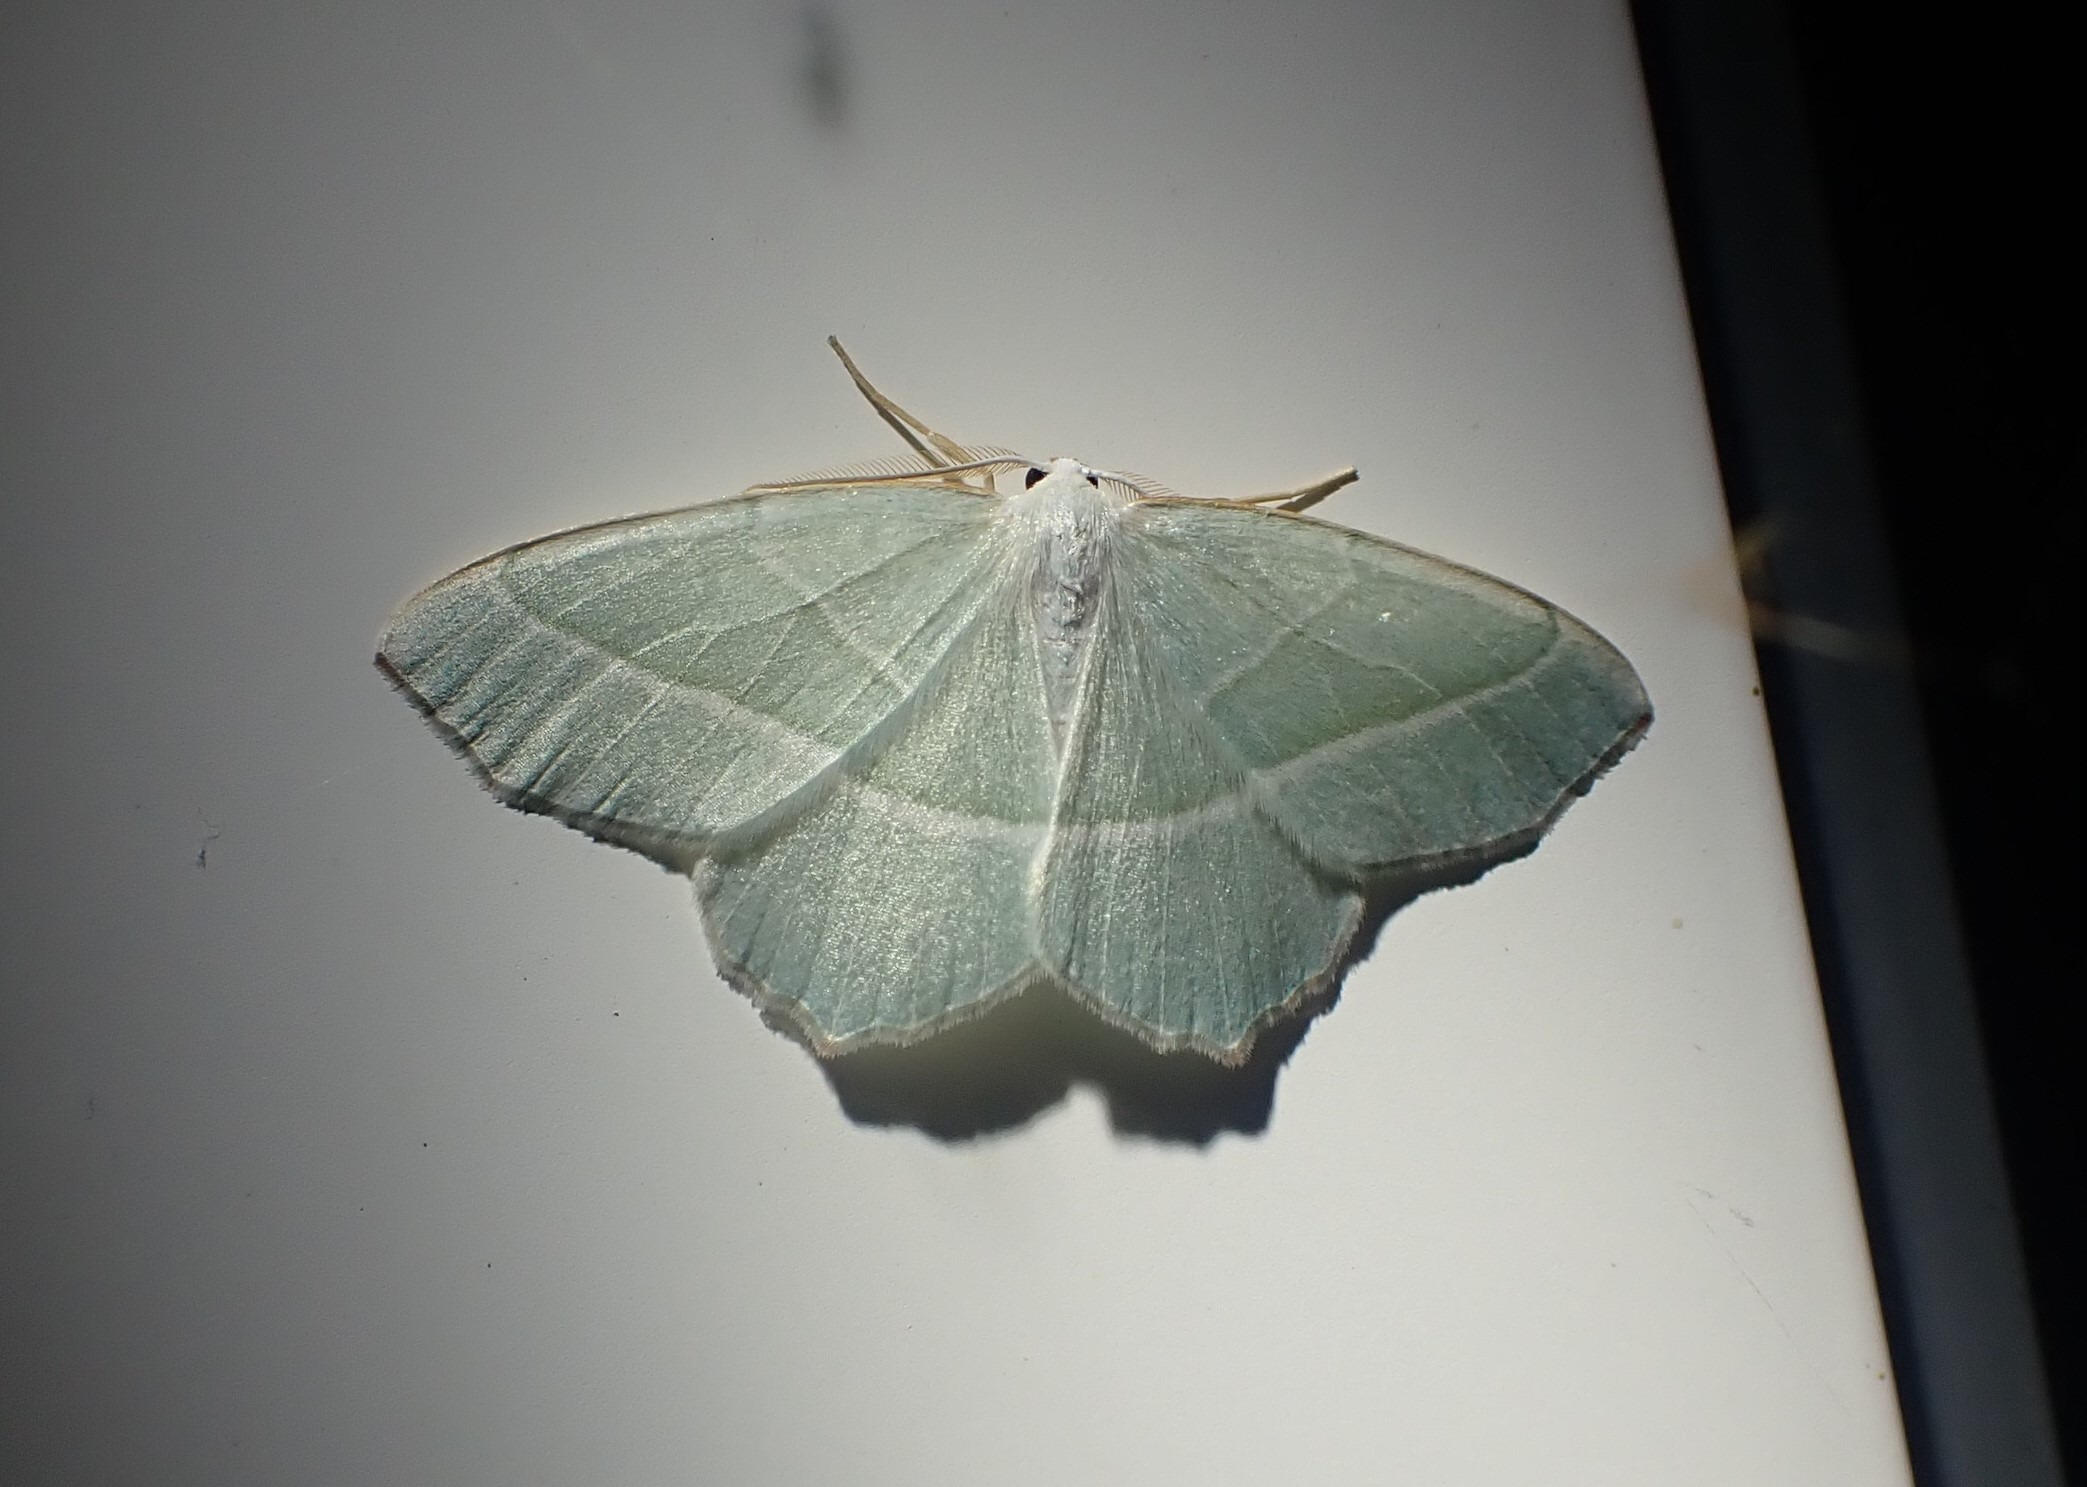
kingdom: Animalia
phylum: Arthropoda
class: Insecta
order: Lepidoptera
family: Geometridae
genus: Campaea
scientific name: Campaea margaritaria
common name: Perlemåler
